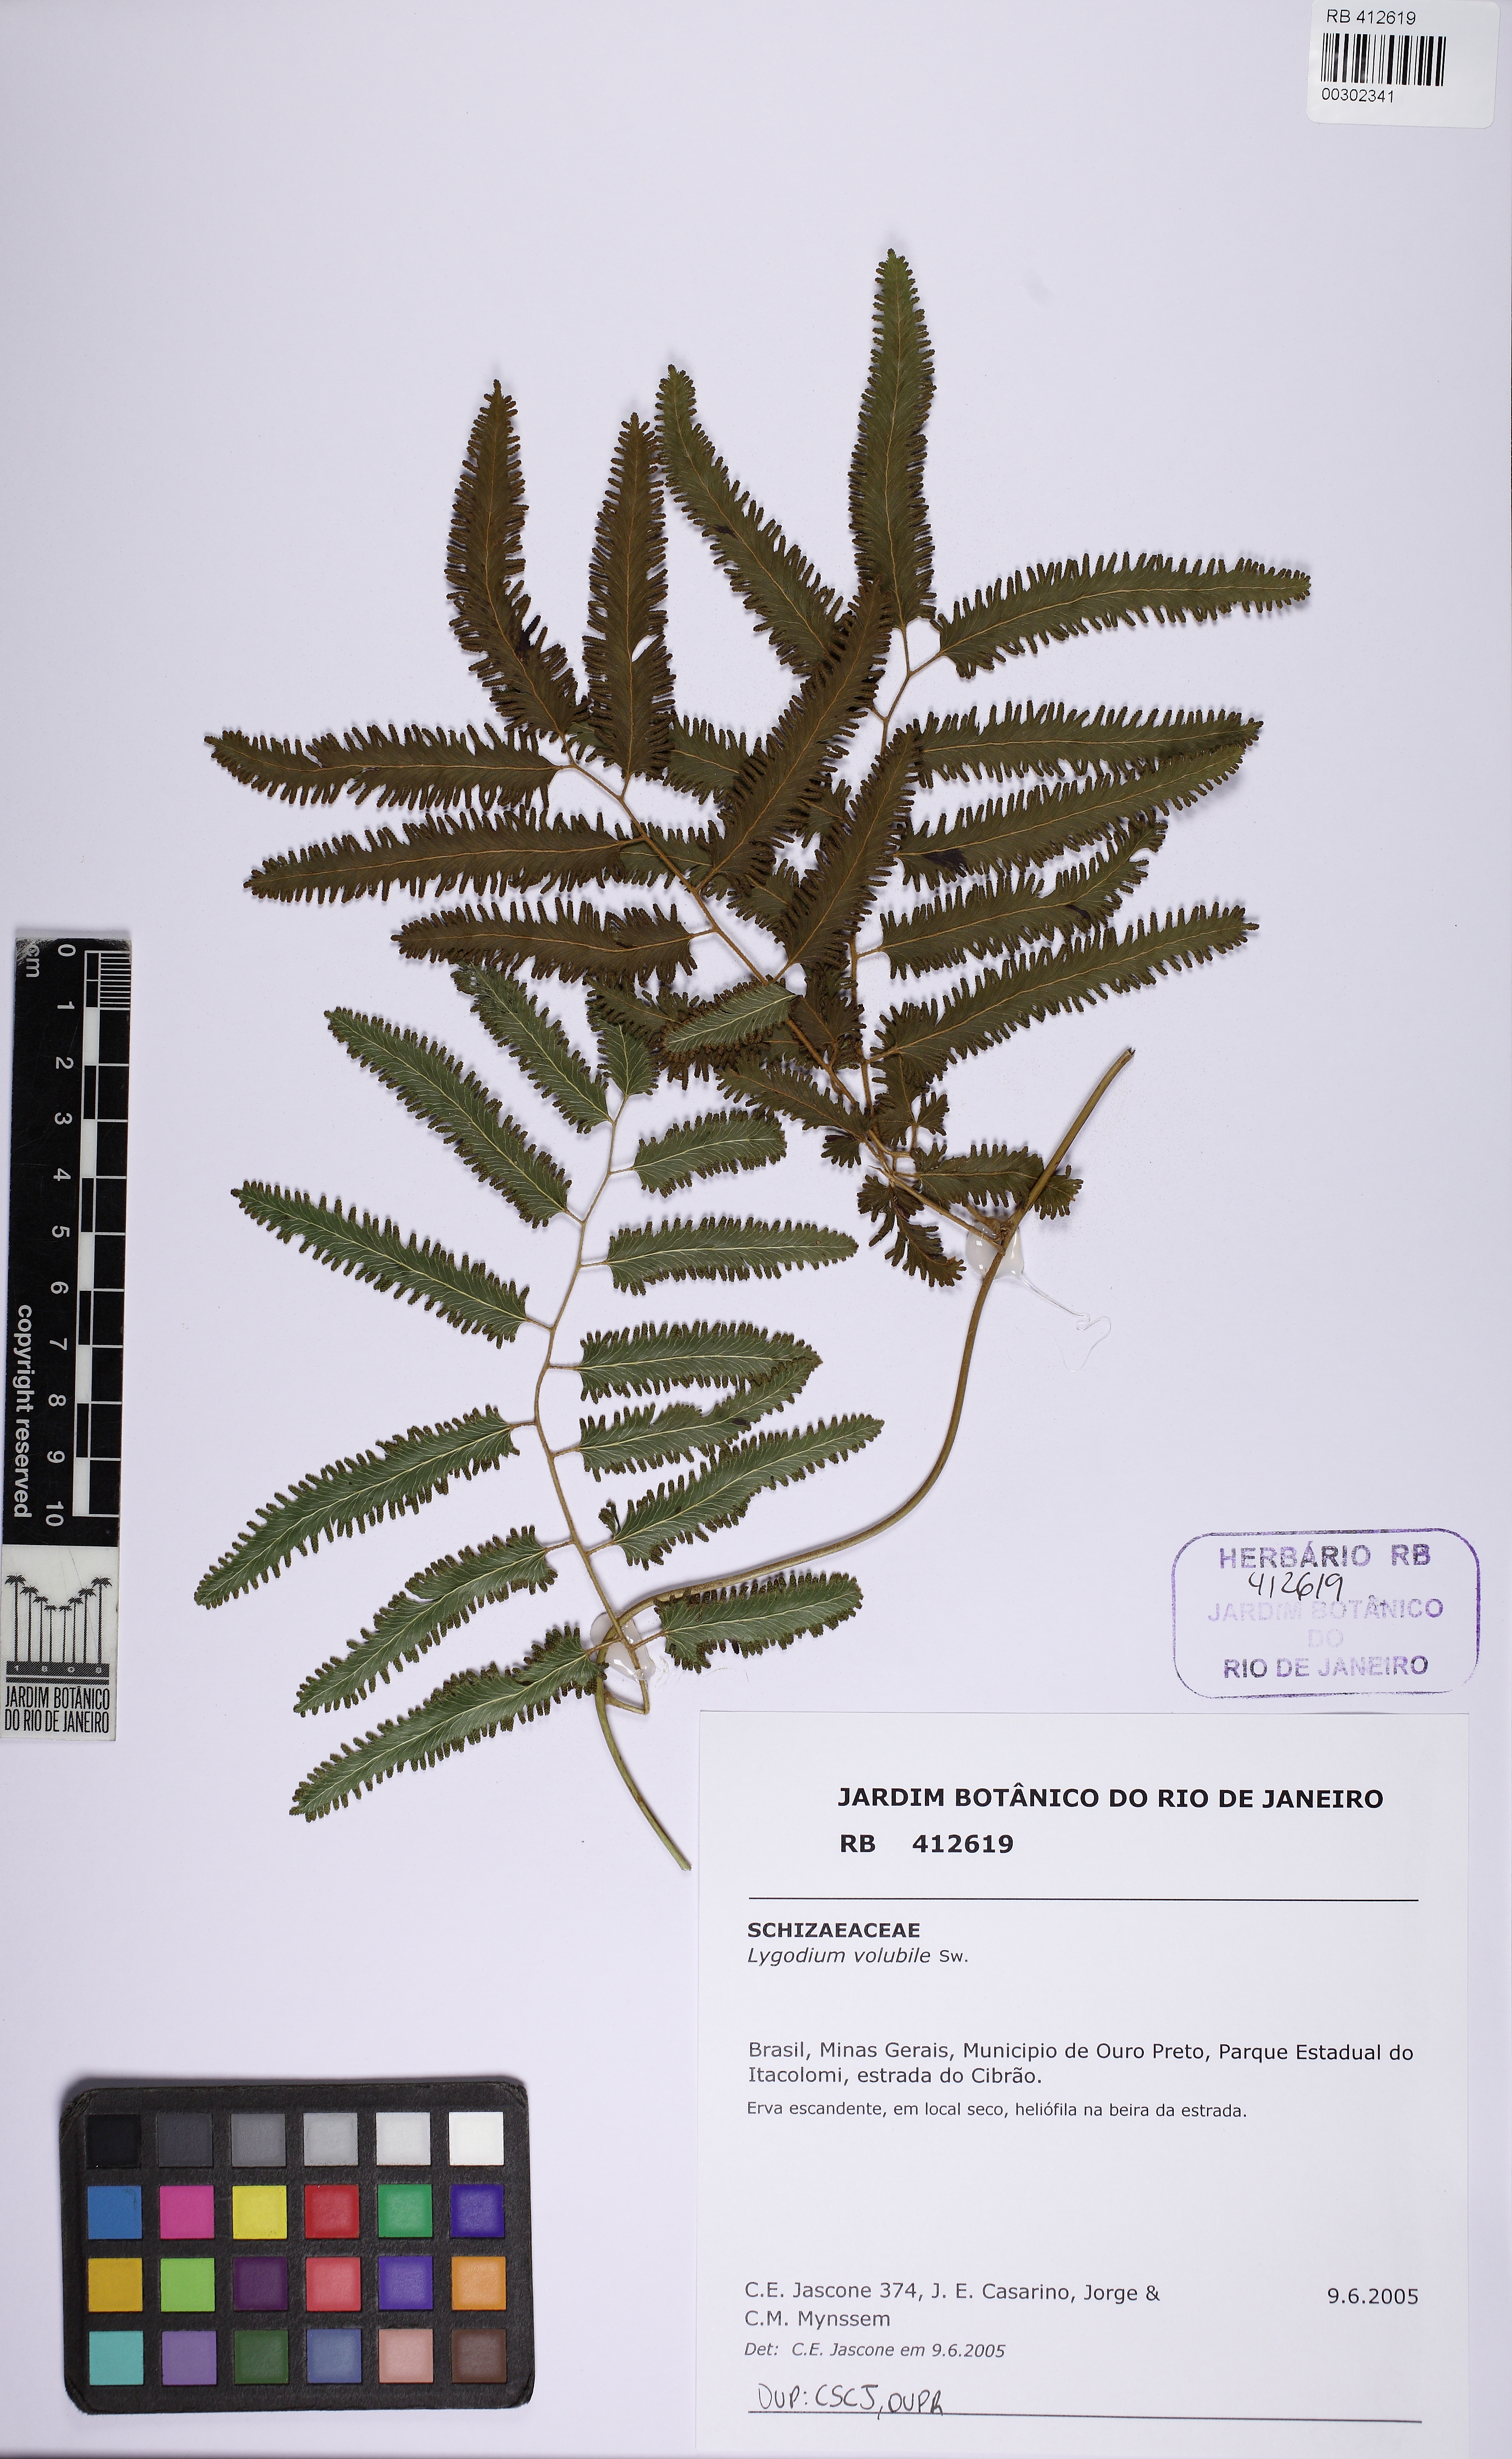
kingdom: Plantae
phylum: Tracheophyta
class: Polypodiopsida
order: Schizaeales
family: Lygodiaceae
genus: Lygodium
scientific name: Lygodium volubile
